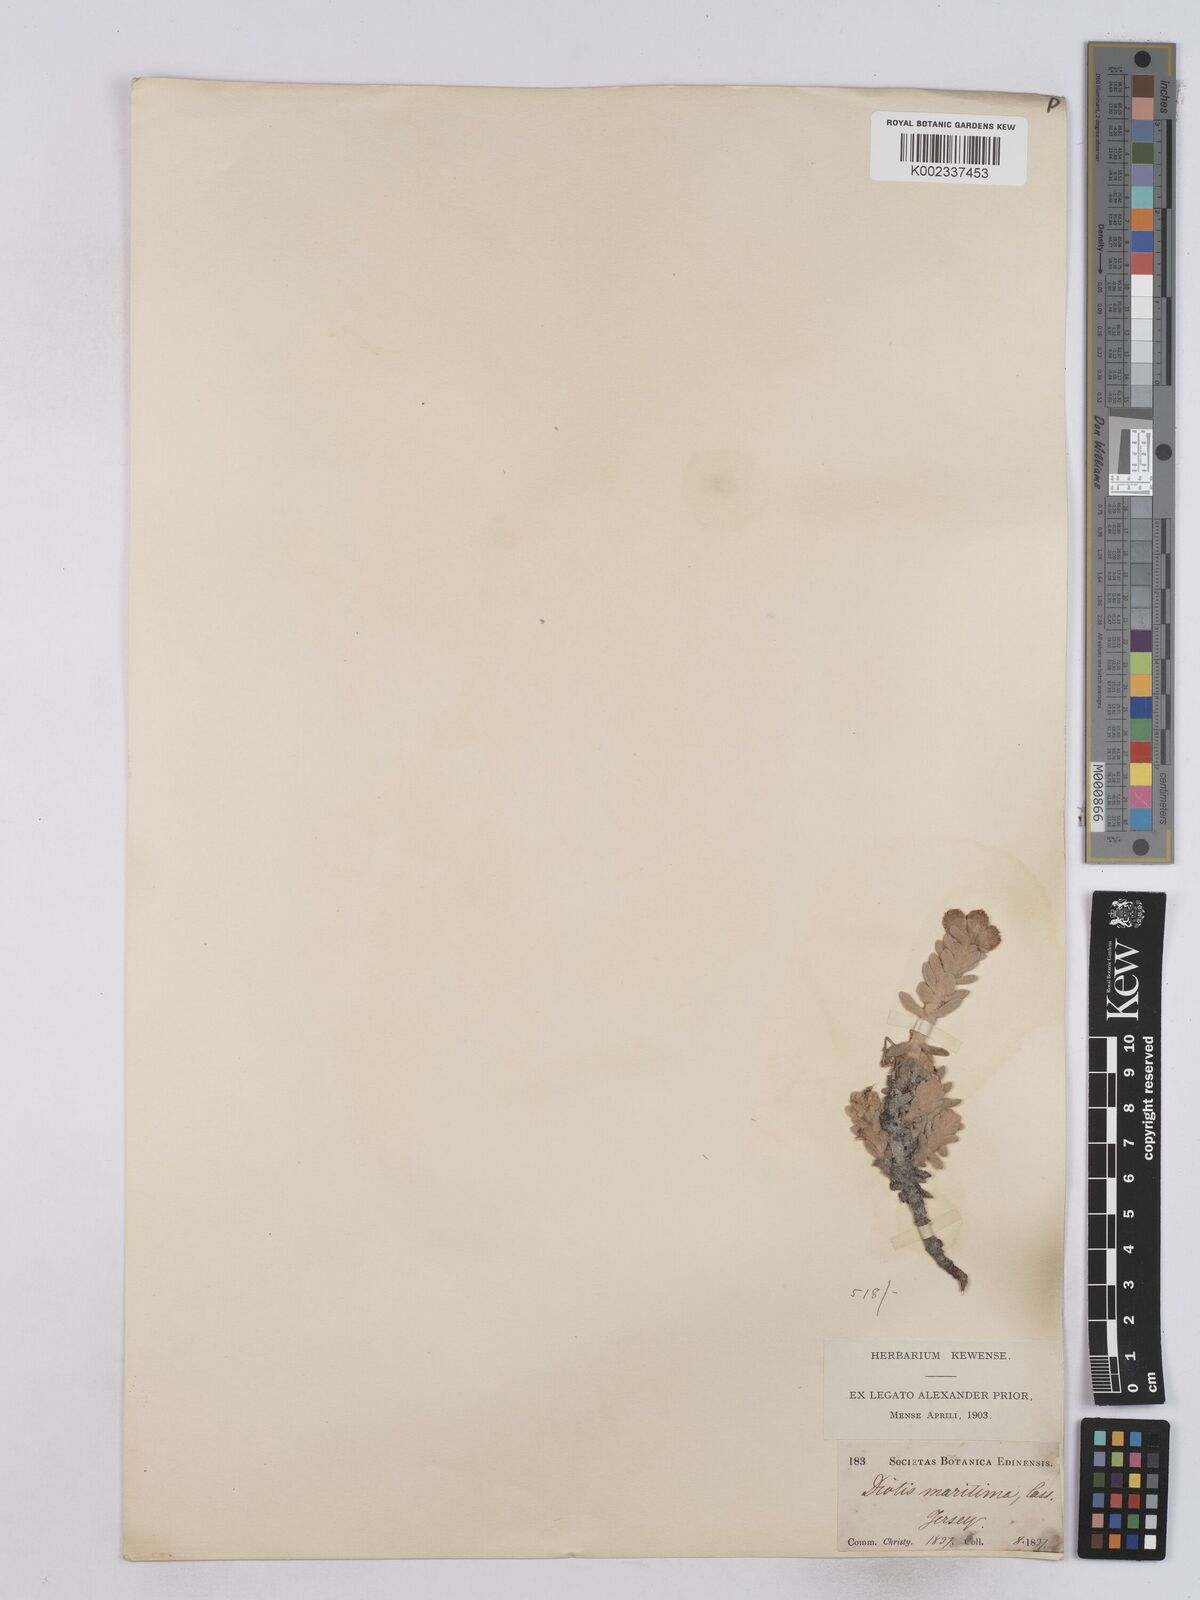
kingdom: Plantae
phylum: Tracheophyta
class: Magnoliopsida
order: Asterales
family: Asteraceae
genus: Achillea
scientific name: Achillea maritima
